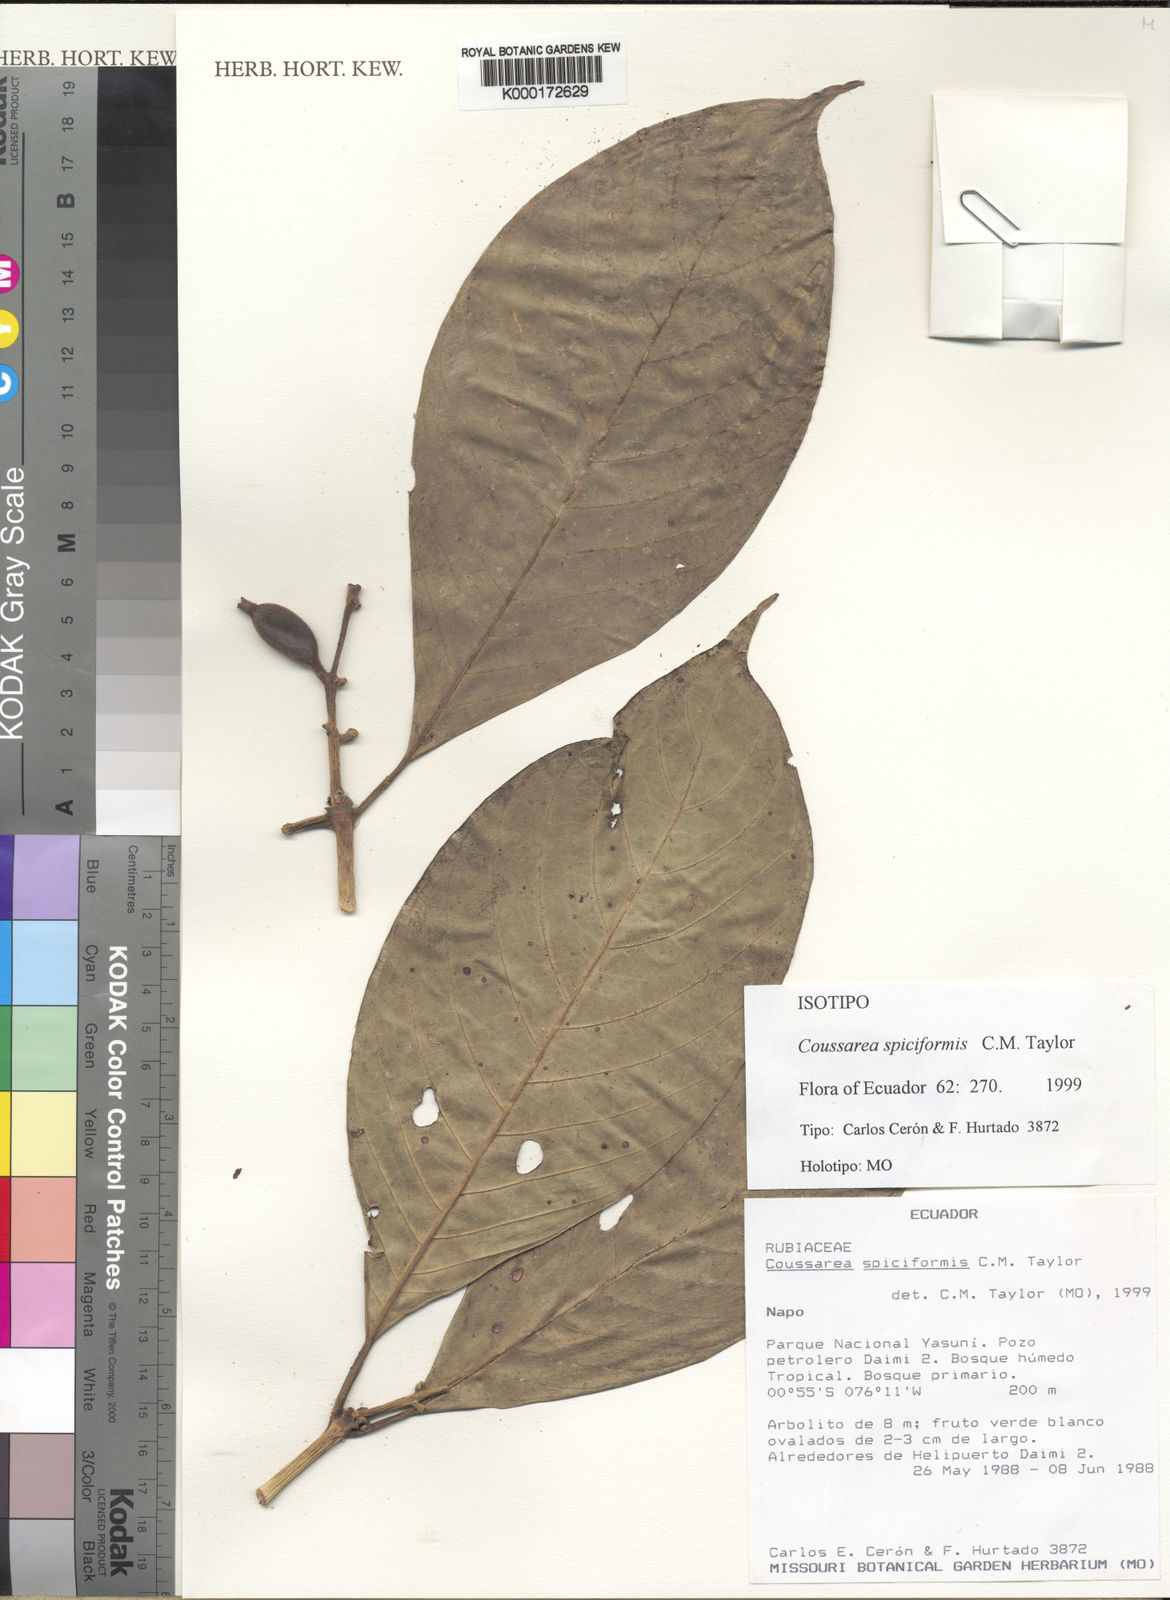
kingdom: Plantae
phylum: Tracheophyta
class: Magnoliopsida
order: Gentianales
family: Rubiaceae
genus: Coussarea
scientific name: Coussarea spiciformis
